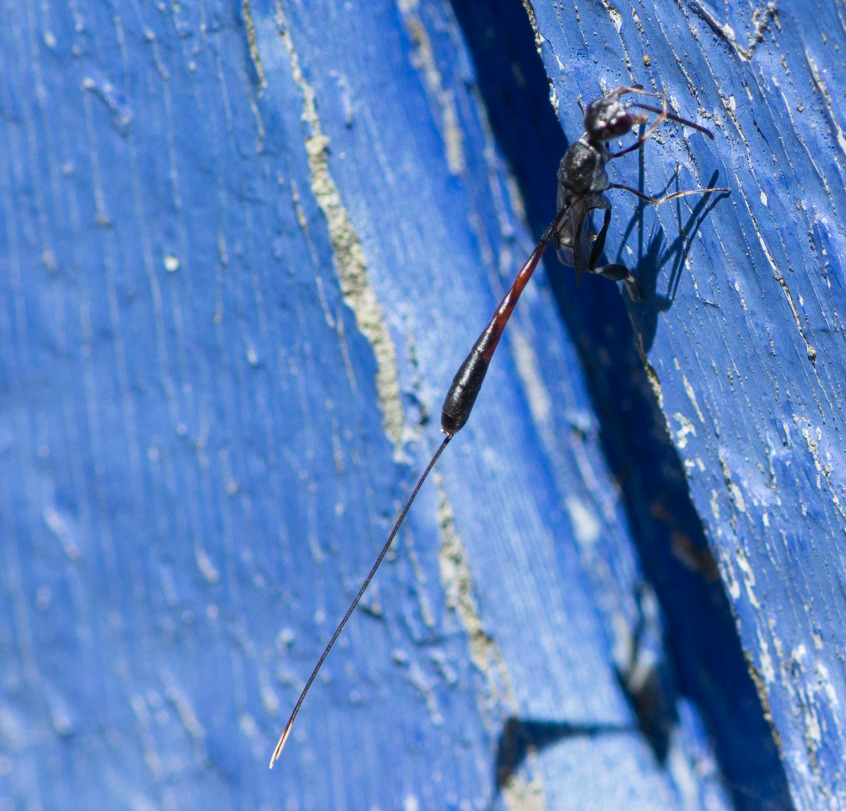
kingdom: Animalia
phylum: Arthropoda
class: Insecta
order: Hymenoptera
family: Gasteruptiidae
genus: Gasteruption
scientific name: Gasteruption
